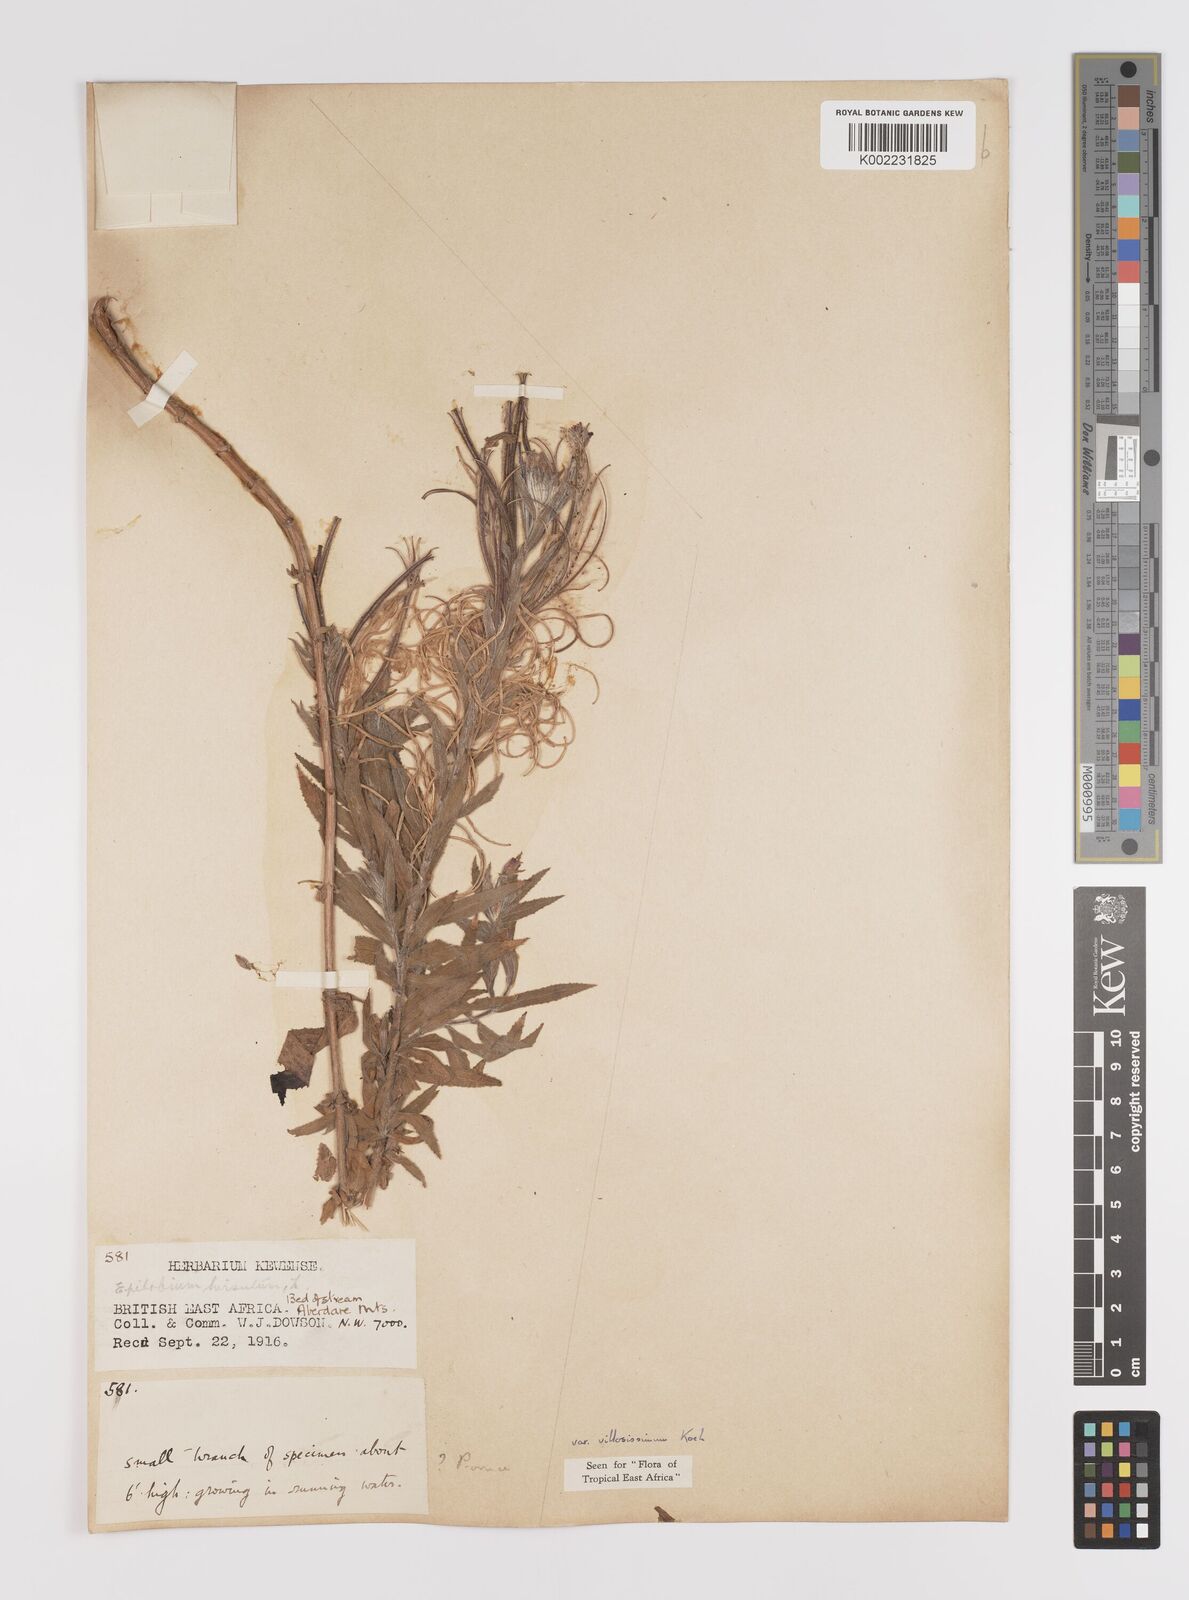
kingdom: Plantae
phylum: Tracheophyta
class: Magnoliopsida
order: Myrtales
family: Onagraceae
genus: Epilobium
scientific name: Epilobium hirsutum
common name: Great willowherb
